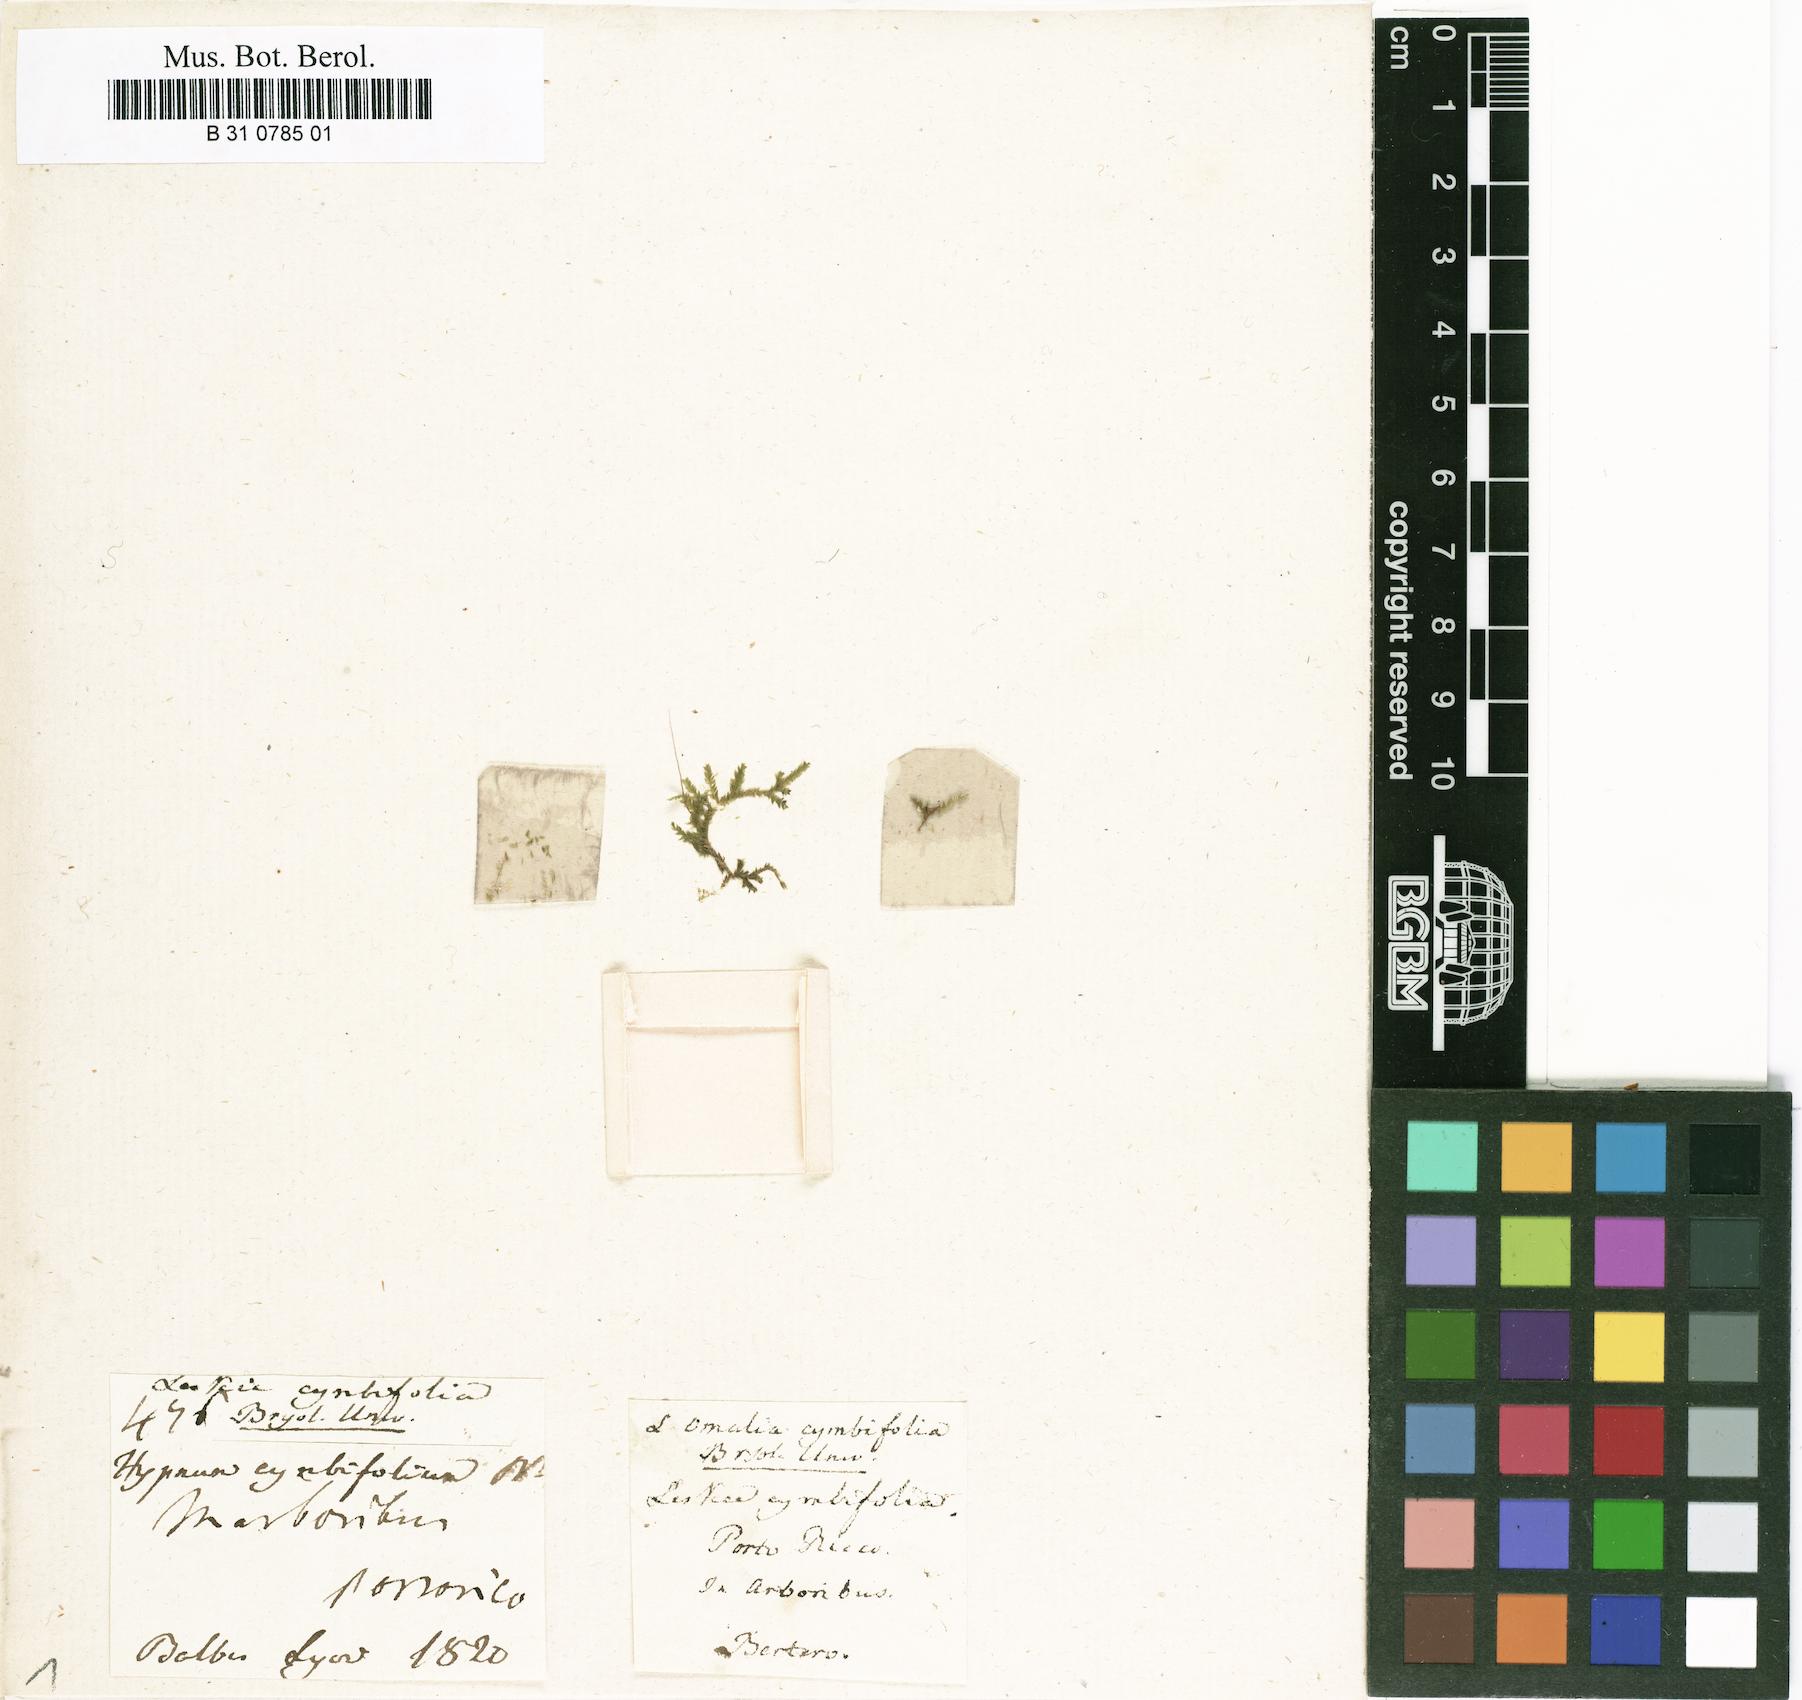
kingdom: Plantae
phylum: Bryophyta
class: Bryopsida
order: Hypnales
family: Neckeraceae
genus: Omalia
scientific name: Omalia
